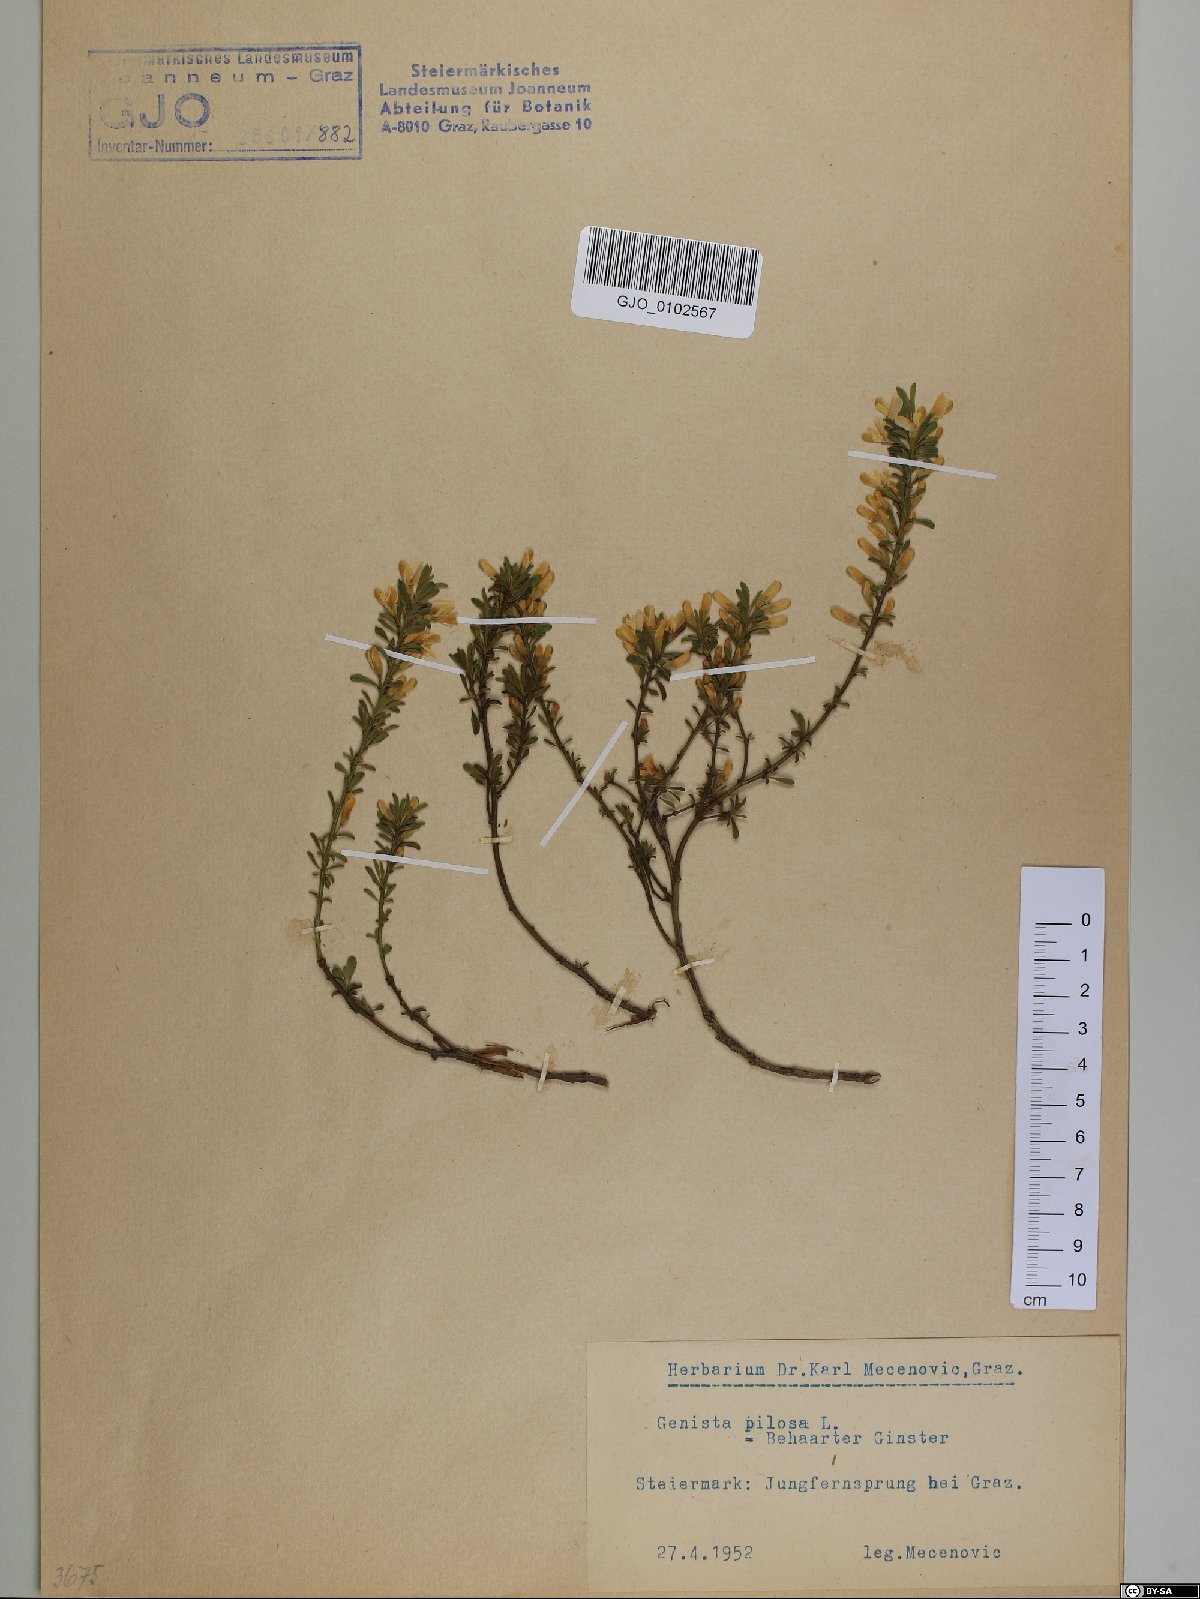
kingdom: Plantae
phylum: Tracheophyta
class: Magnoliopsida
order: Fabales
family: Fabaceae
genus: Genista
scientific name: Genista pilosa
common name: Hairy greenweed
